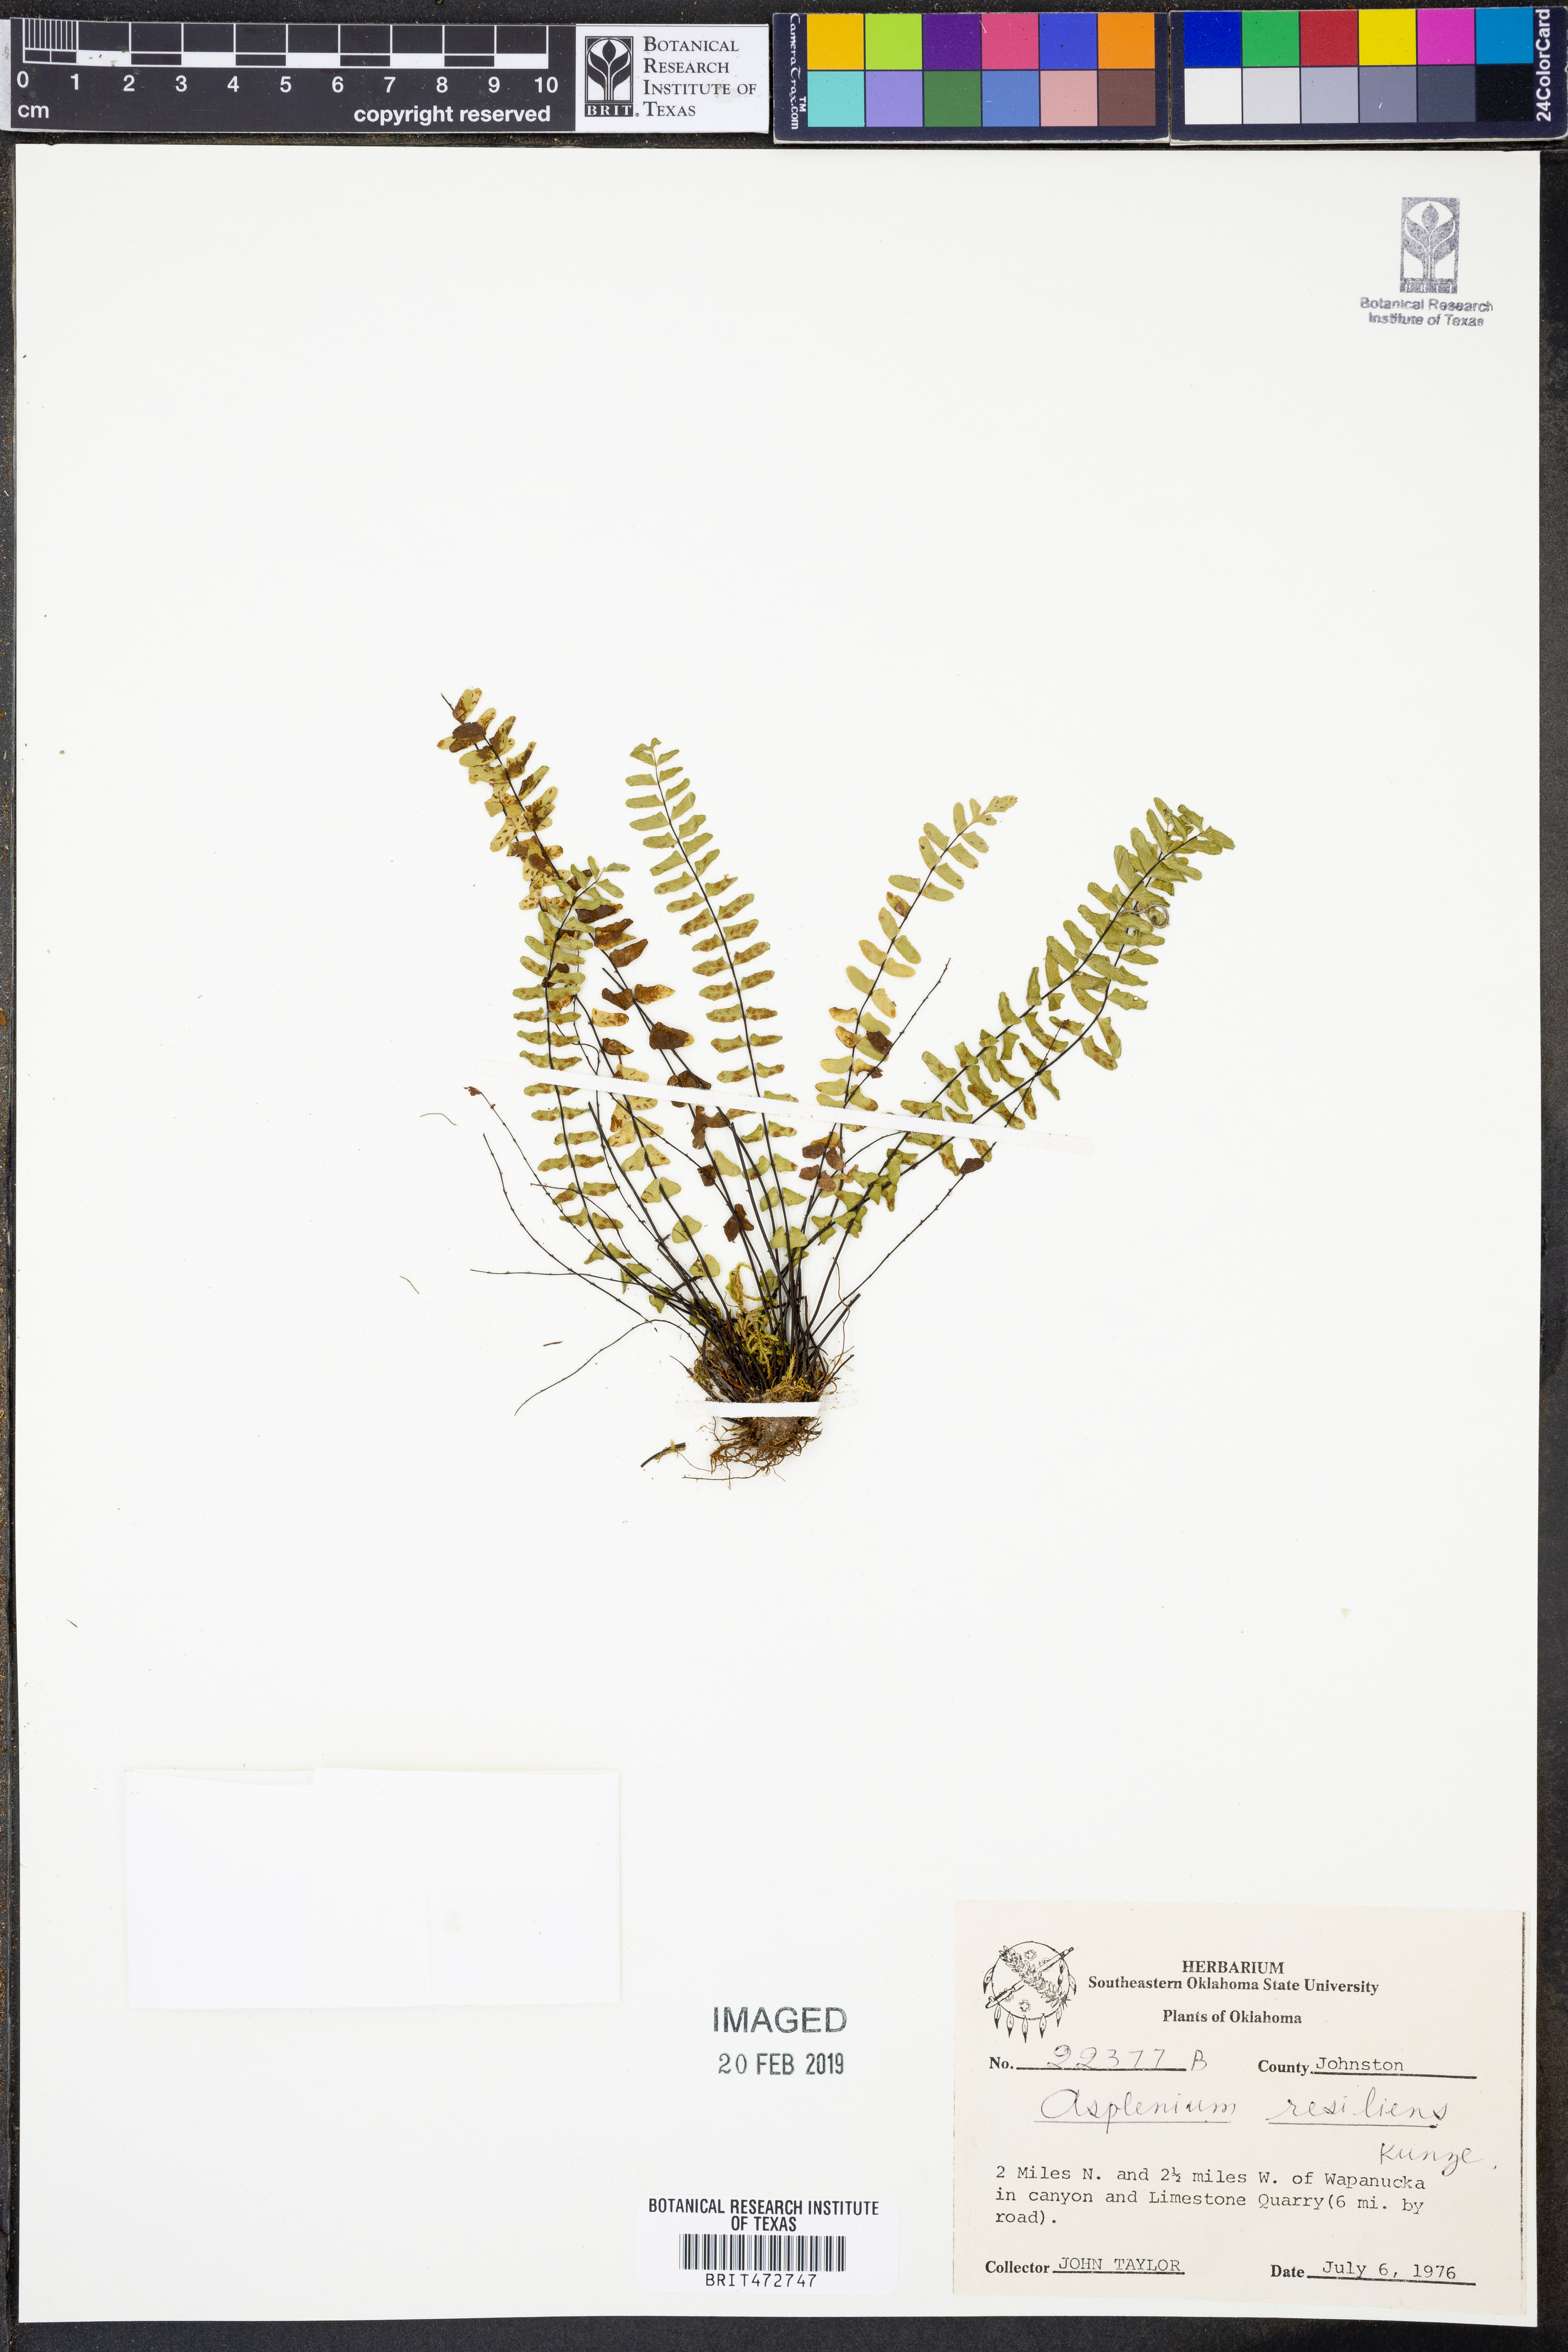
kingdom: Plantae
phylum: Tracheophyta
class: Polypodiopsida
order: Polypodiales
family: Aspleniaceae
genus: Asplenium
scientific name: Asplenium resiliens
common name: Blackstem spleenwort
